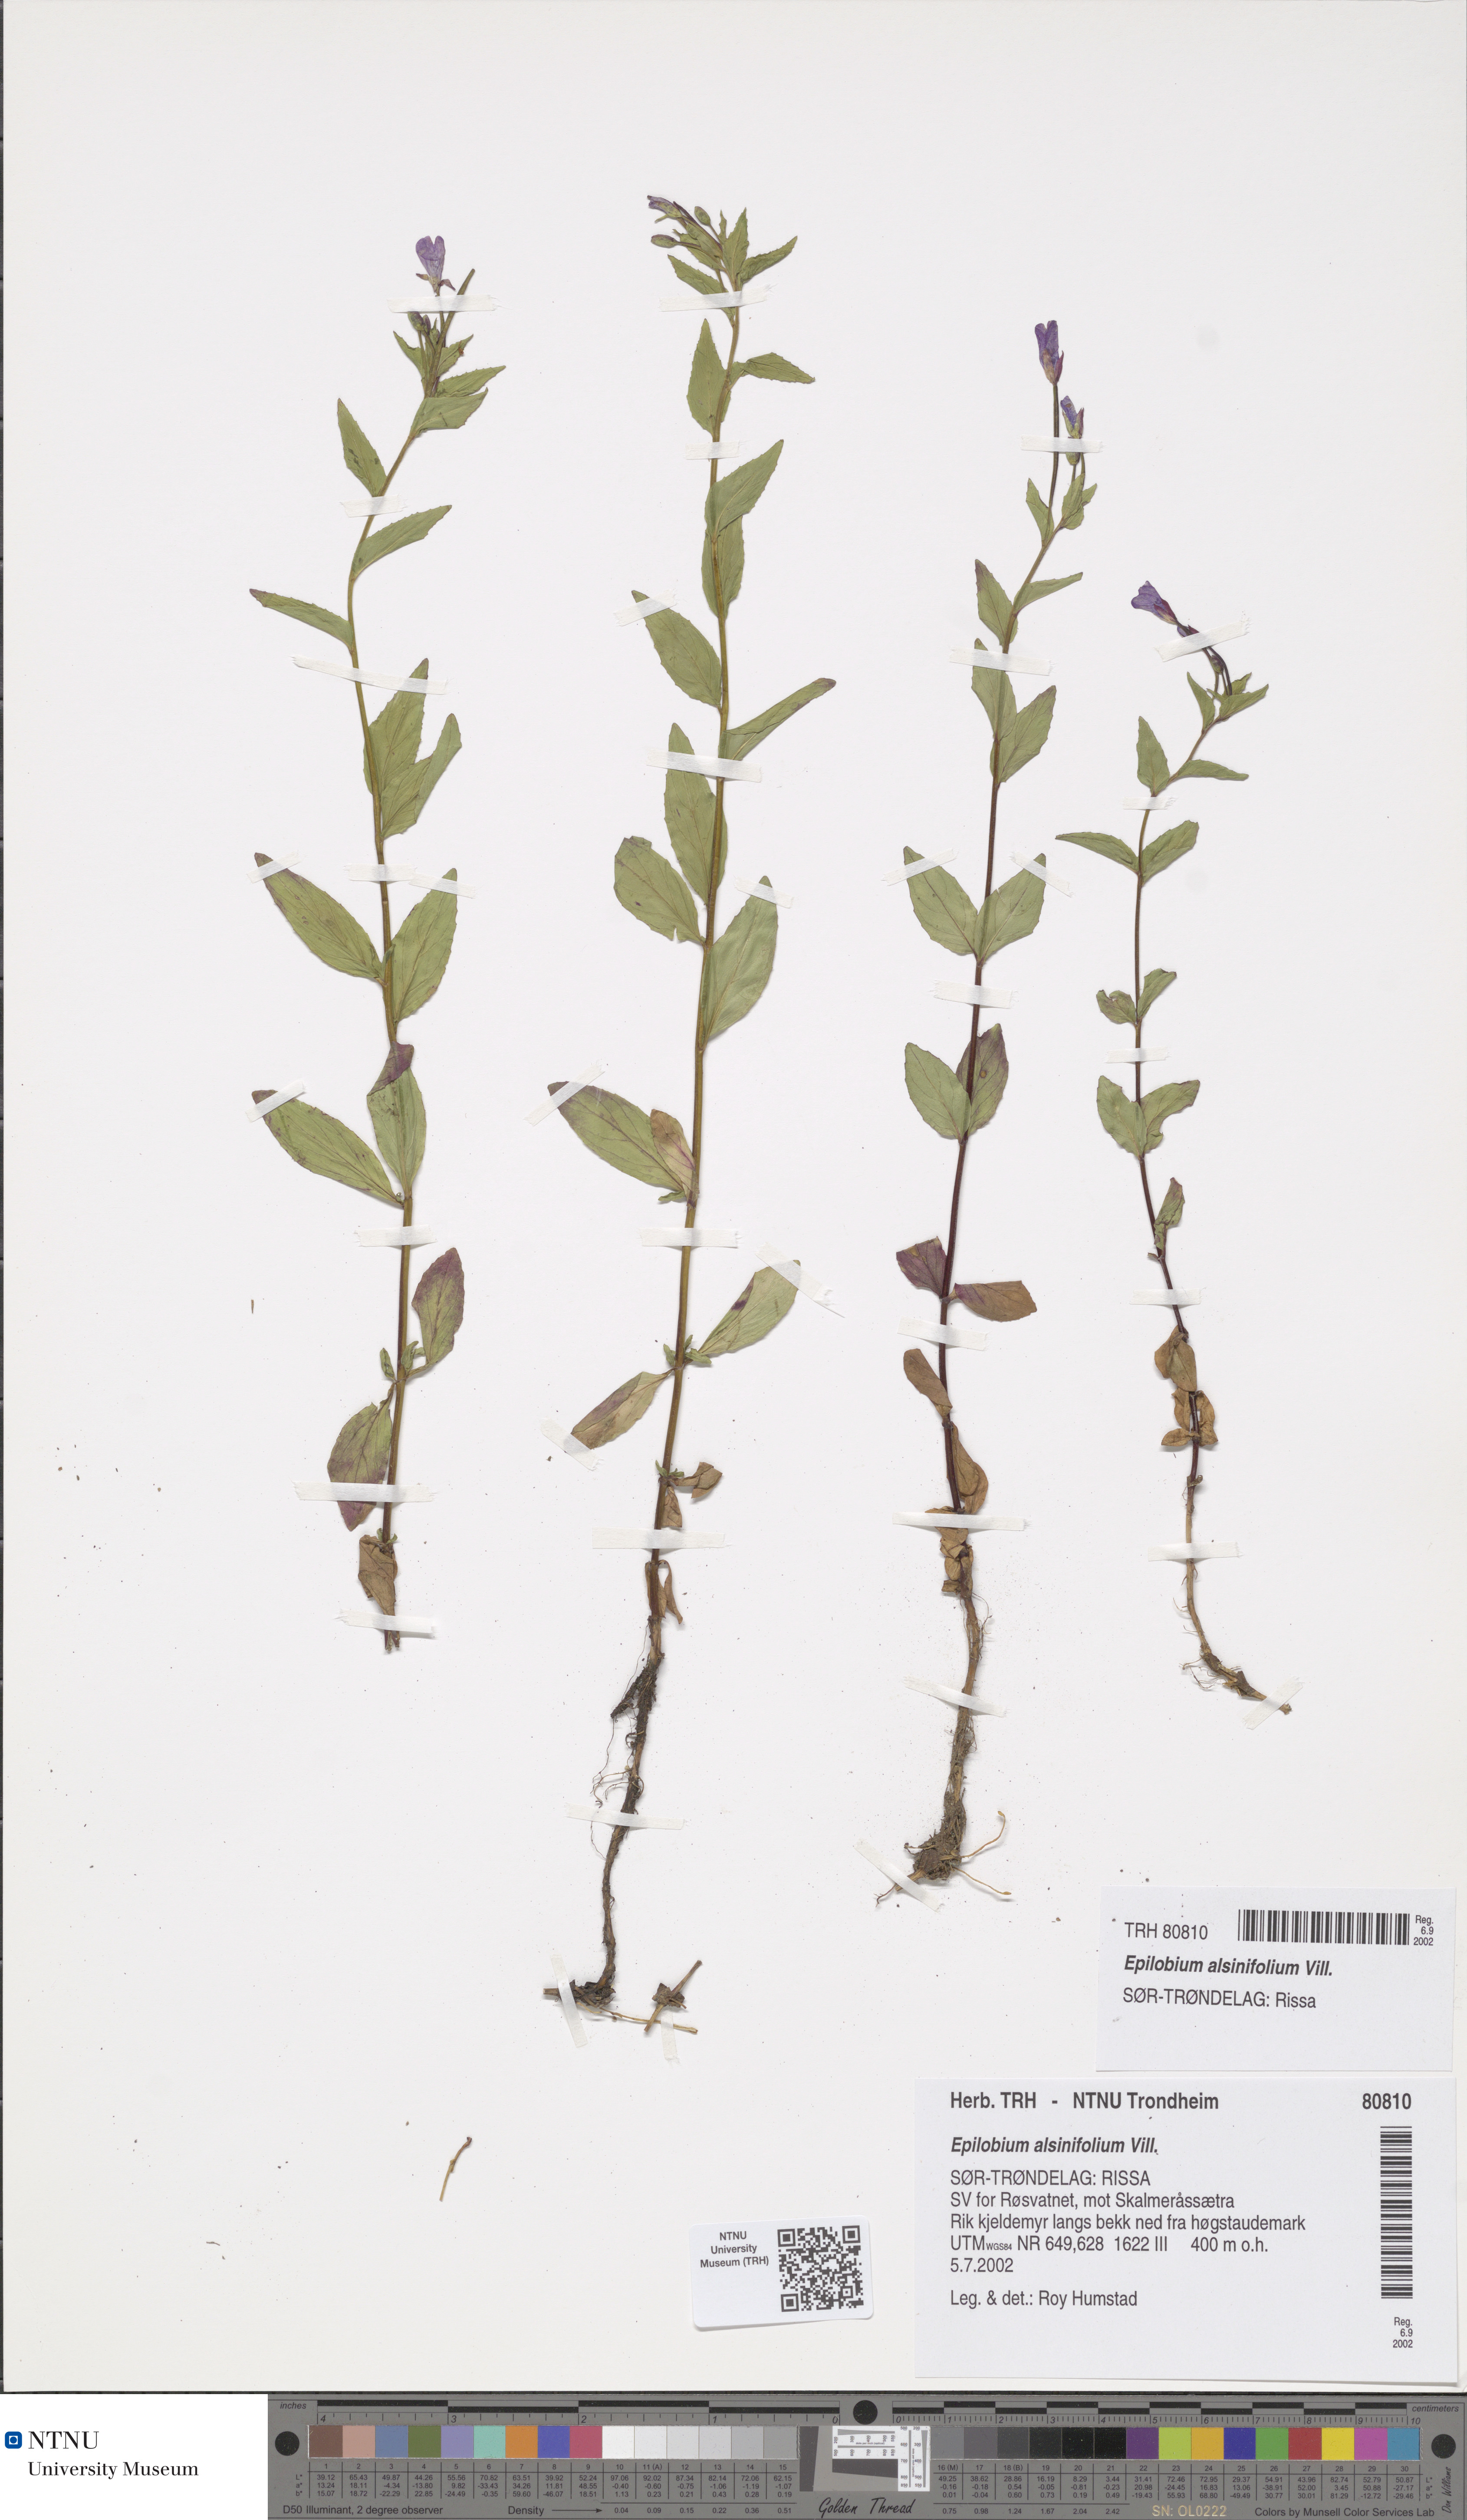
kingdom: Plantae
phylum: Tracheophyta
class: Magnoliopsida
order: Myrtales
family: Onagraceae
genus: Epilobium
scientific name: Epilobium alsinifolium
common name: Chickweed willowherb
